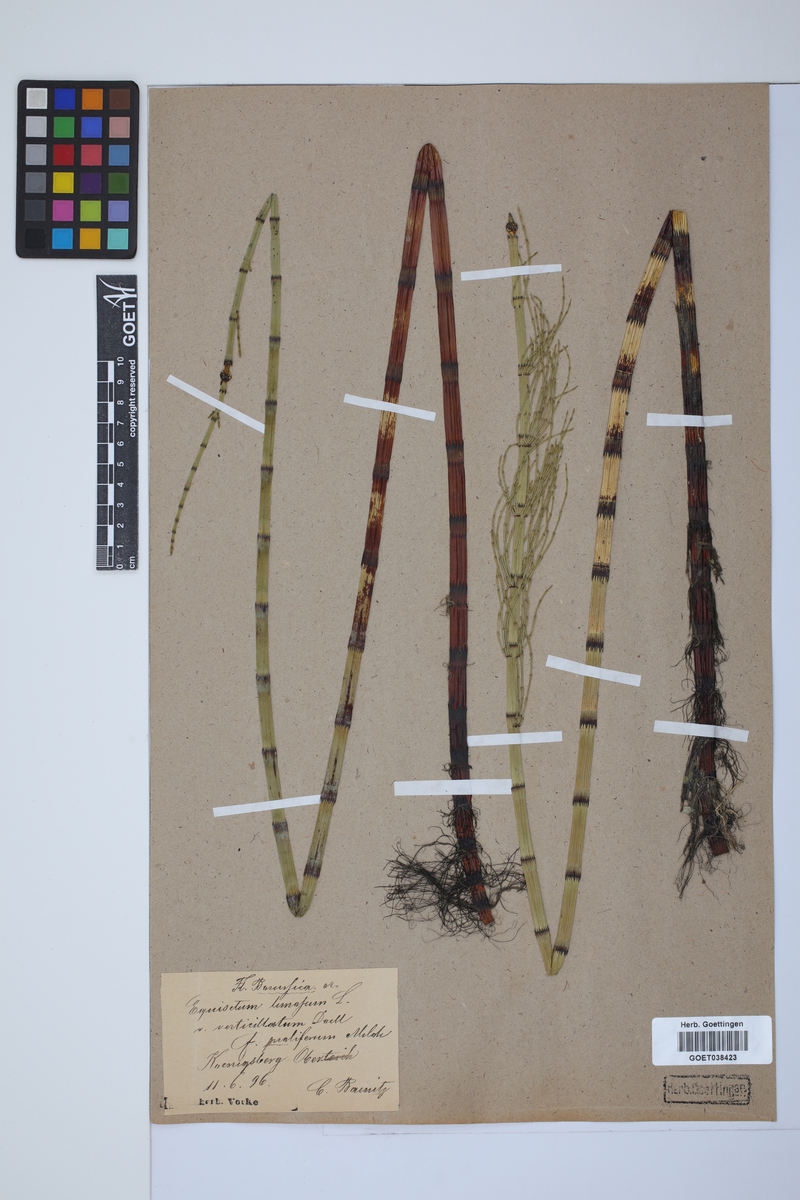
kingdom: Plantae
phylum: Tracheophyta
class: Polypodiopsida
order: Equisetales
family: Equisetaceae
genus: Equisetum
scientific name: Equisetum fluviatile
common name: Water horsetail
